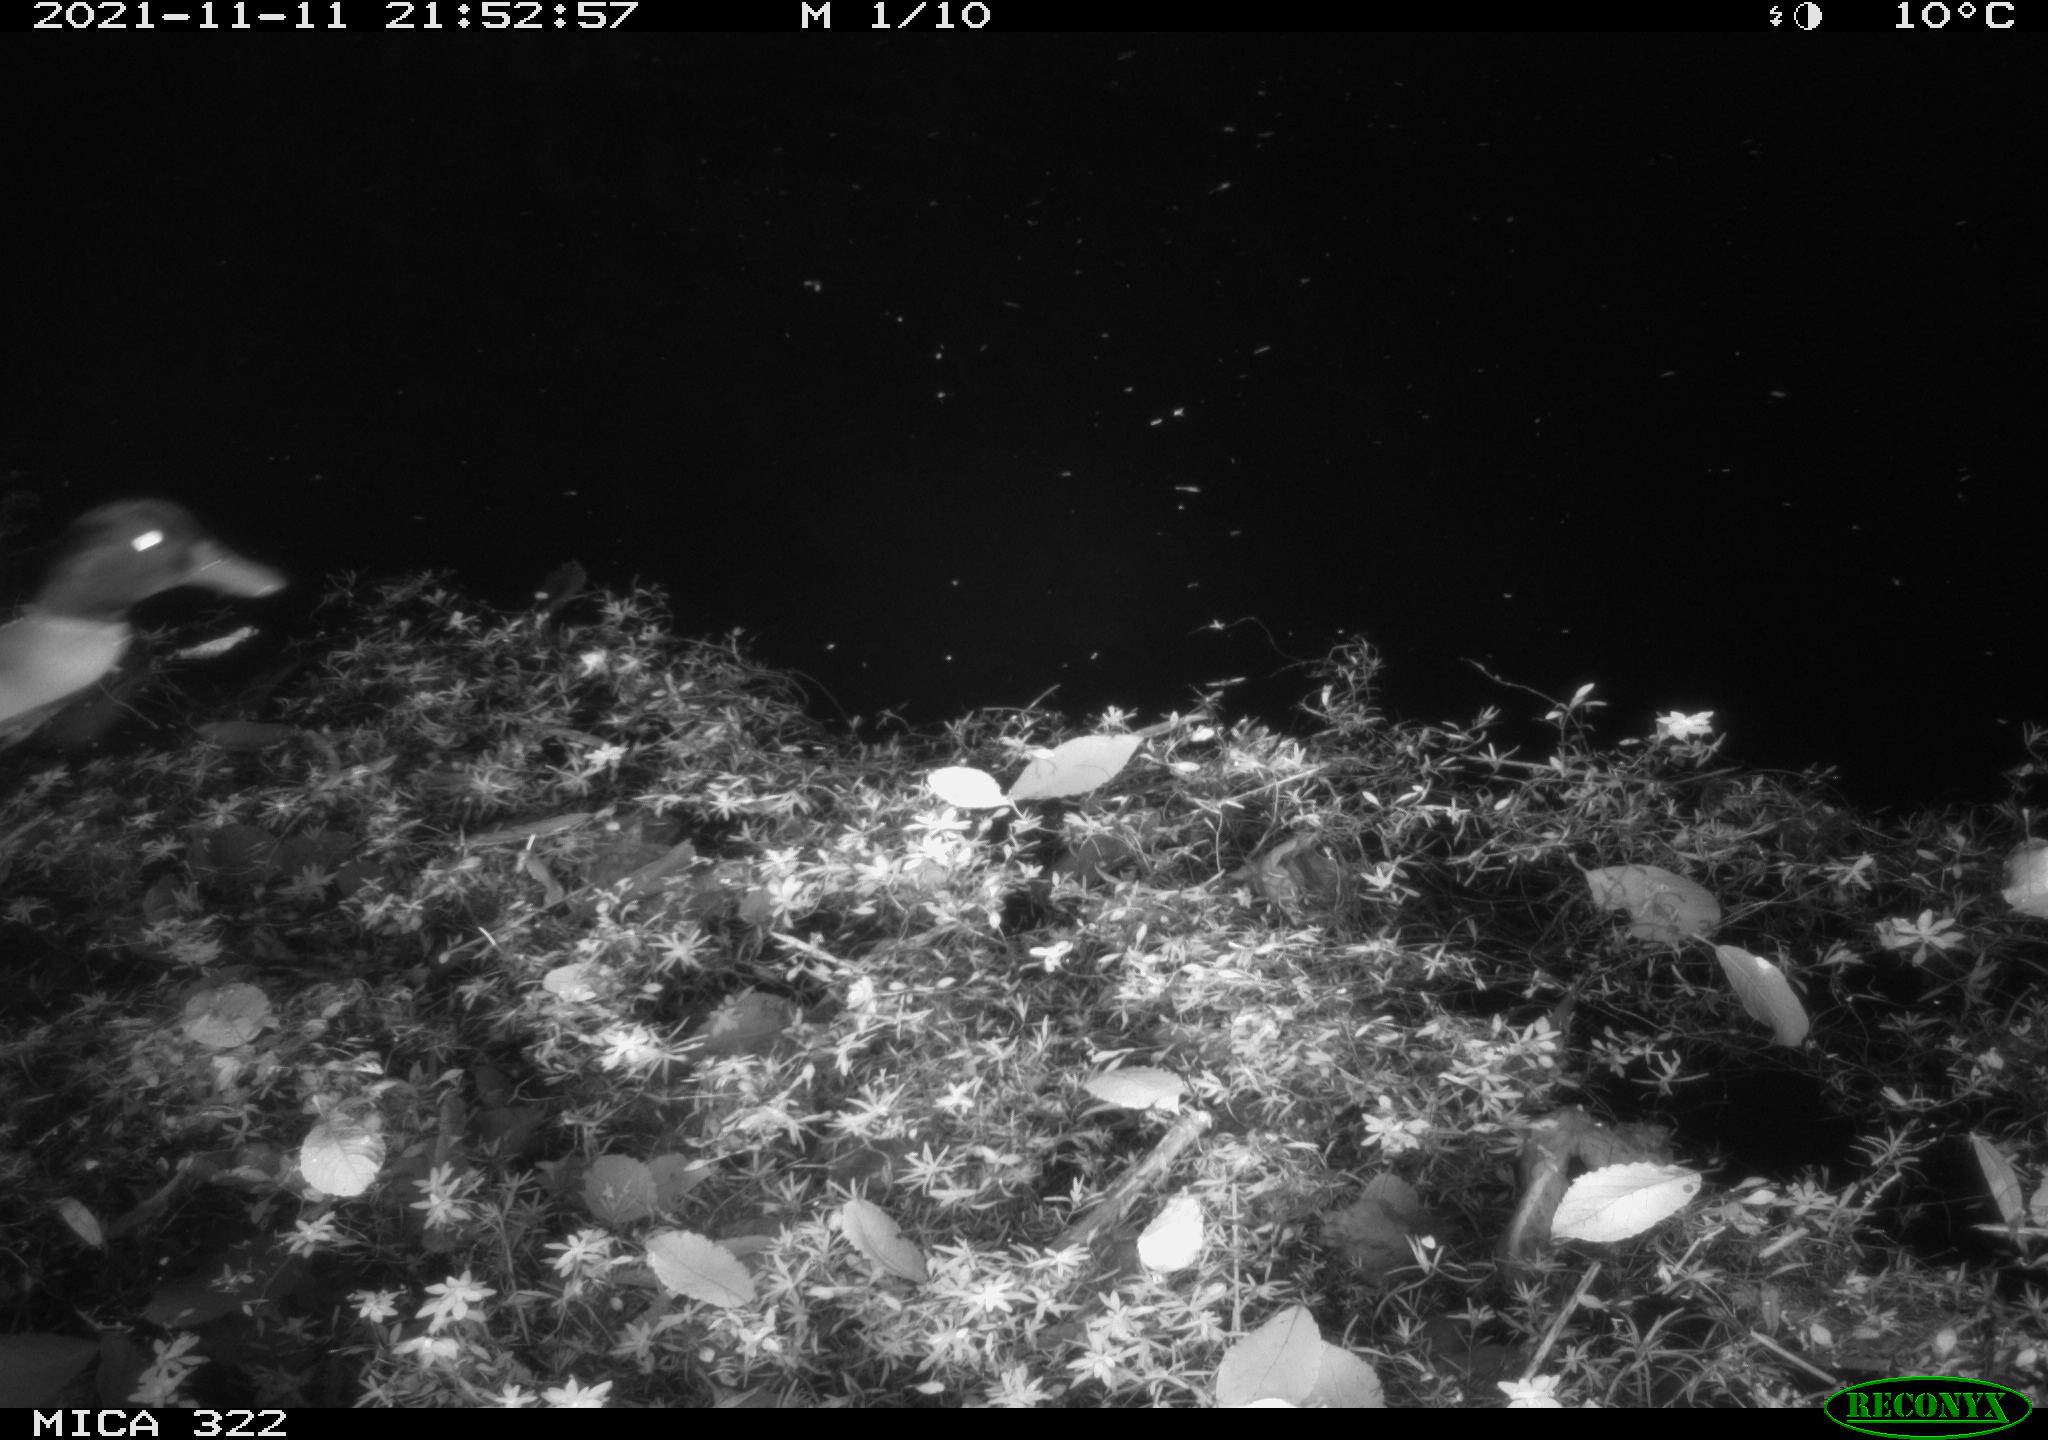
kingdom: Animalia
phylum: Chordata
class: Aves
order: Anseriformes
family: Anatidae
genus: Anas
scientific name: Anas platyrhynchos
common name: Mallard
